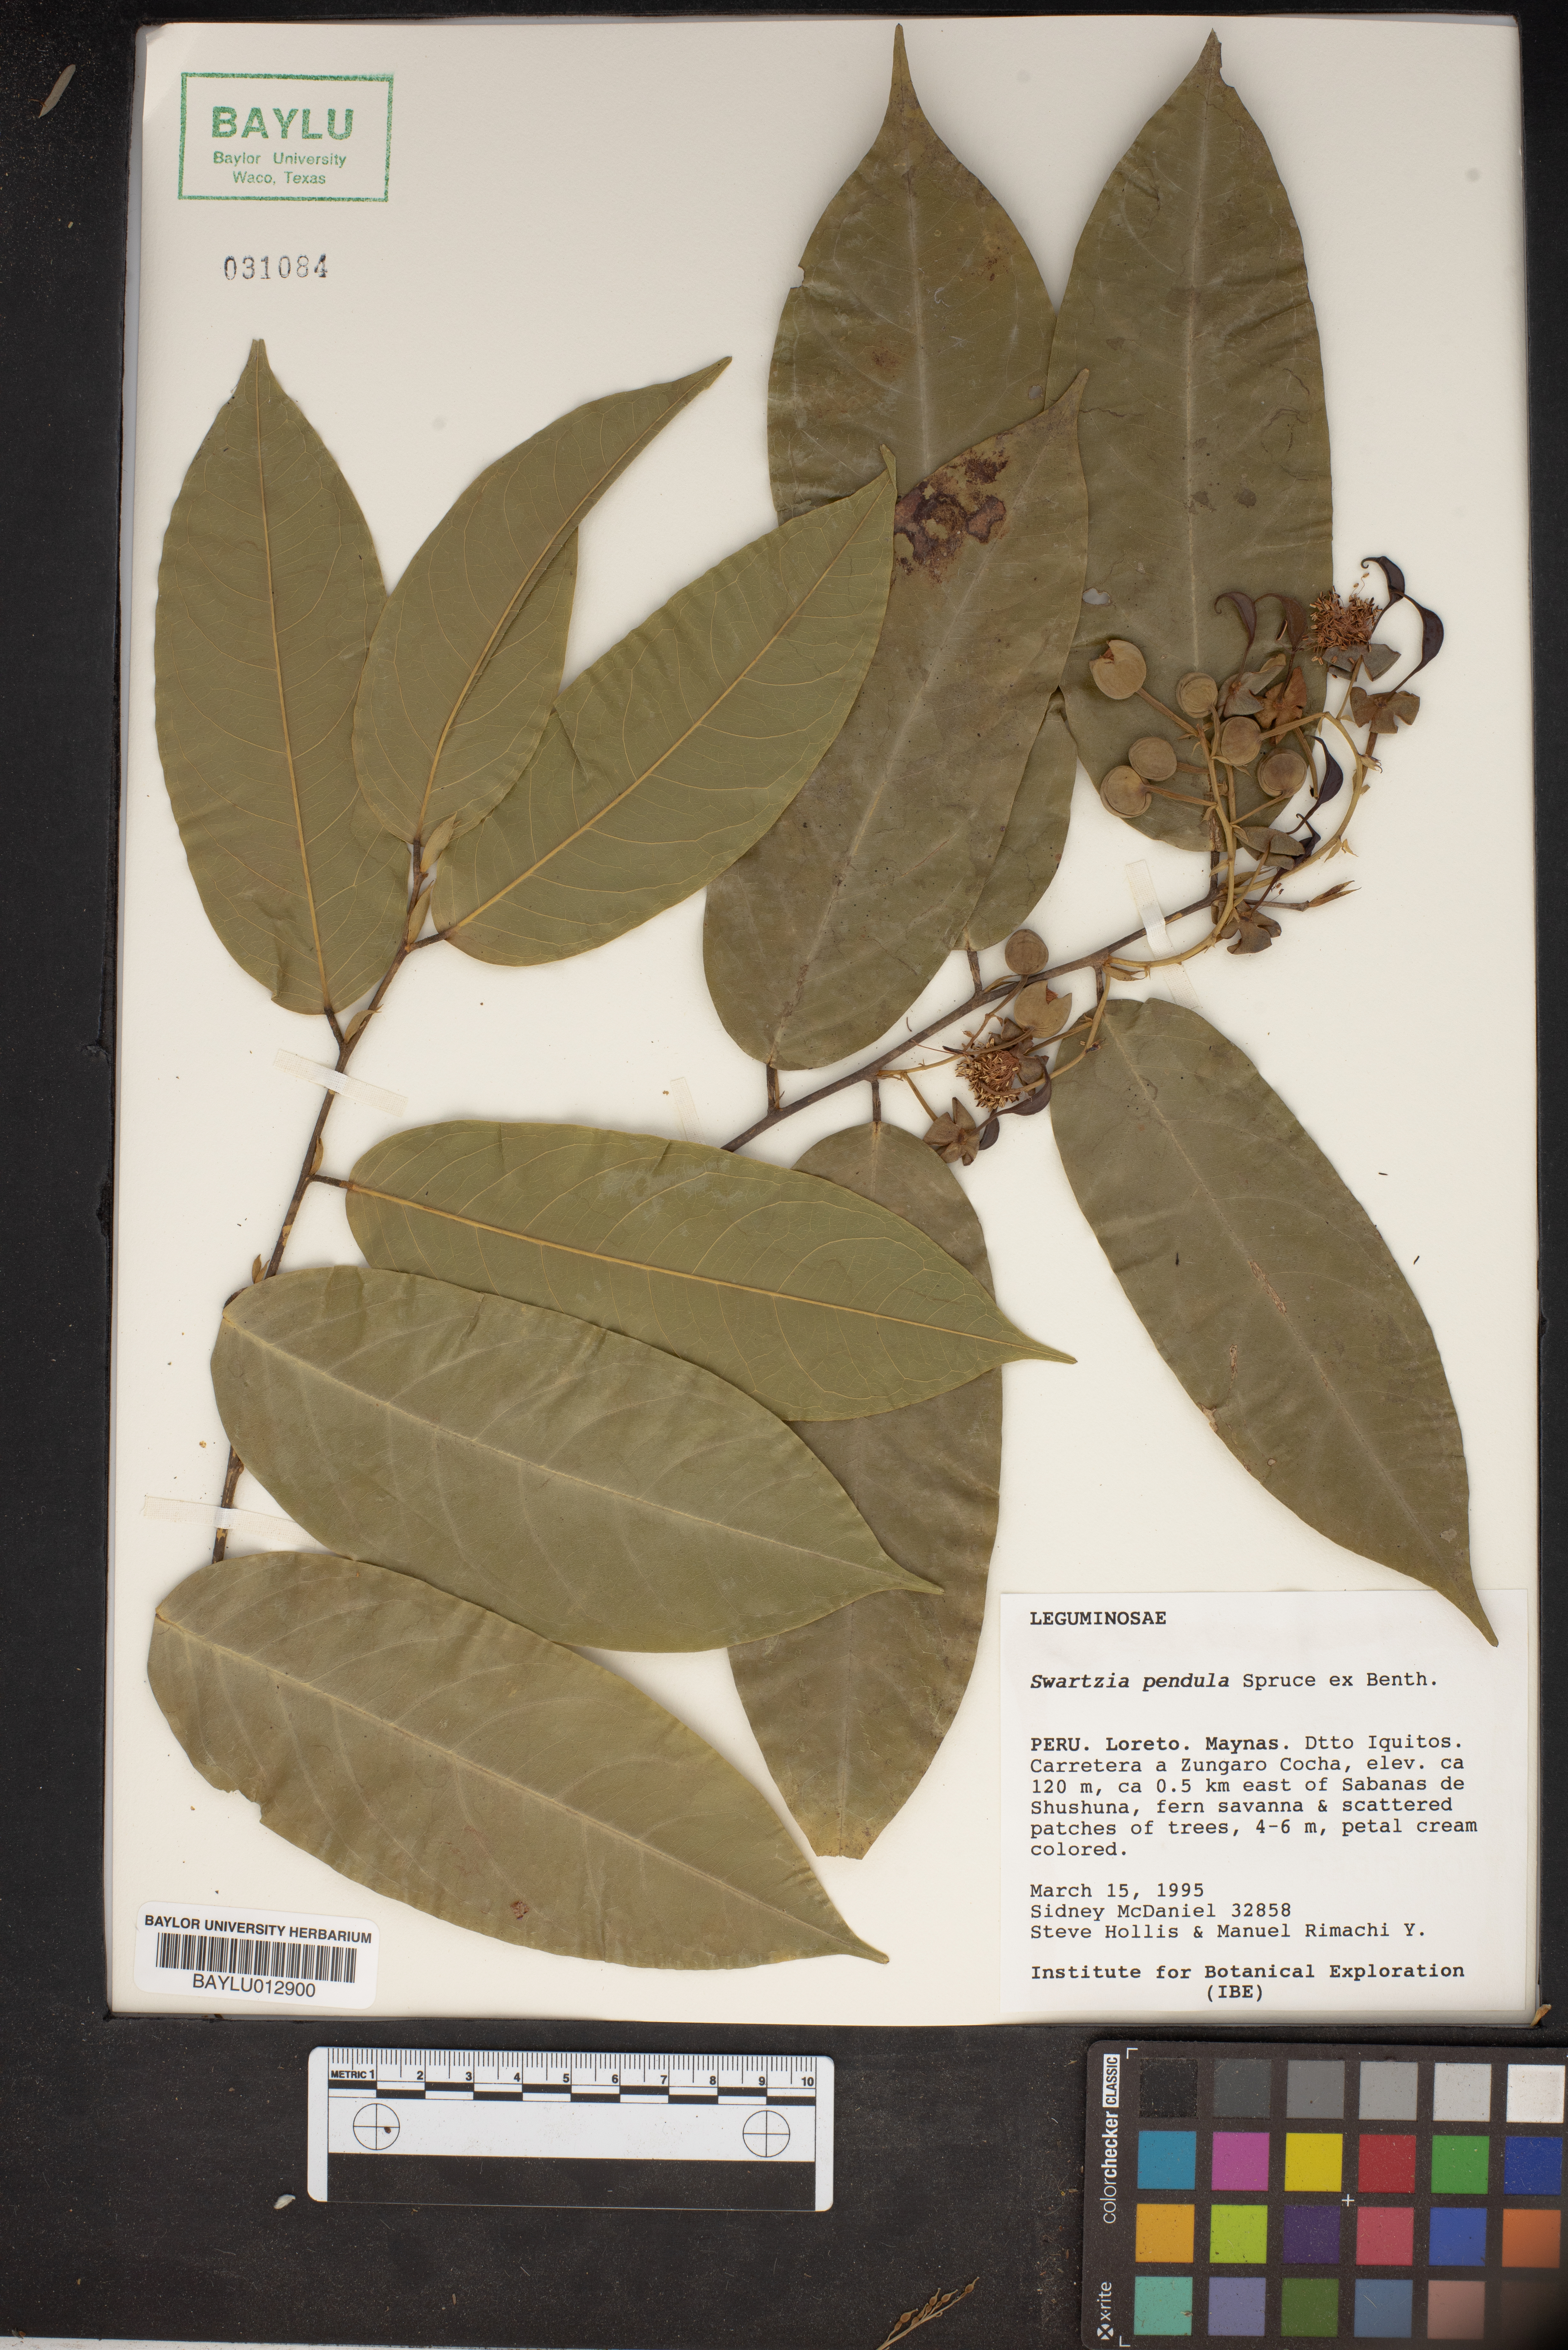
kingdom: Plantae
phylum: Tracheophyta
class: Magnoliopsida
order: Fabales
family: Fabaceae
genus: Swartzia
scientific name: Swartzia pendula
